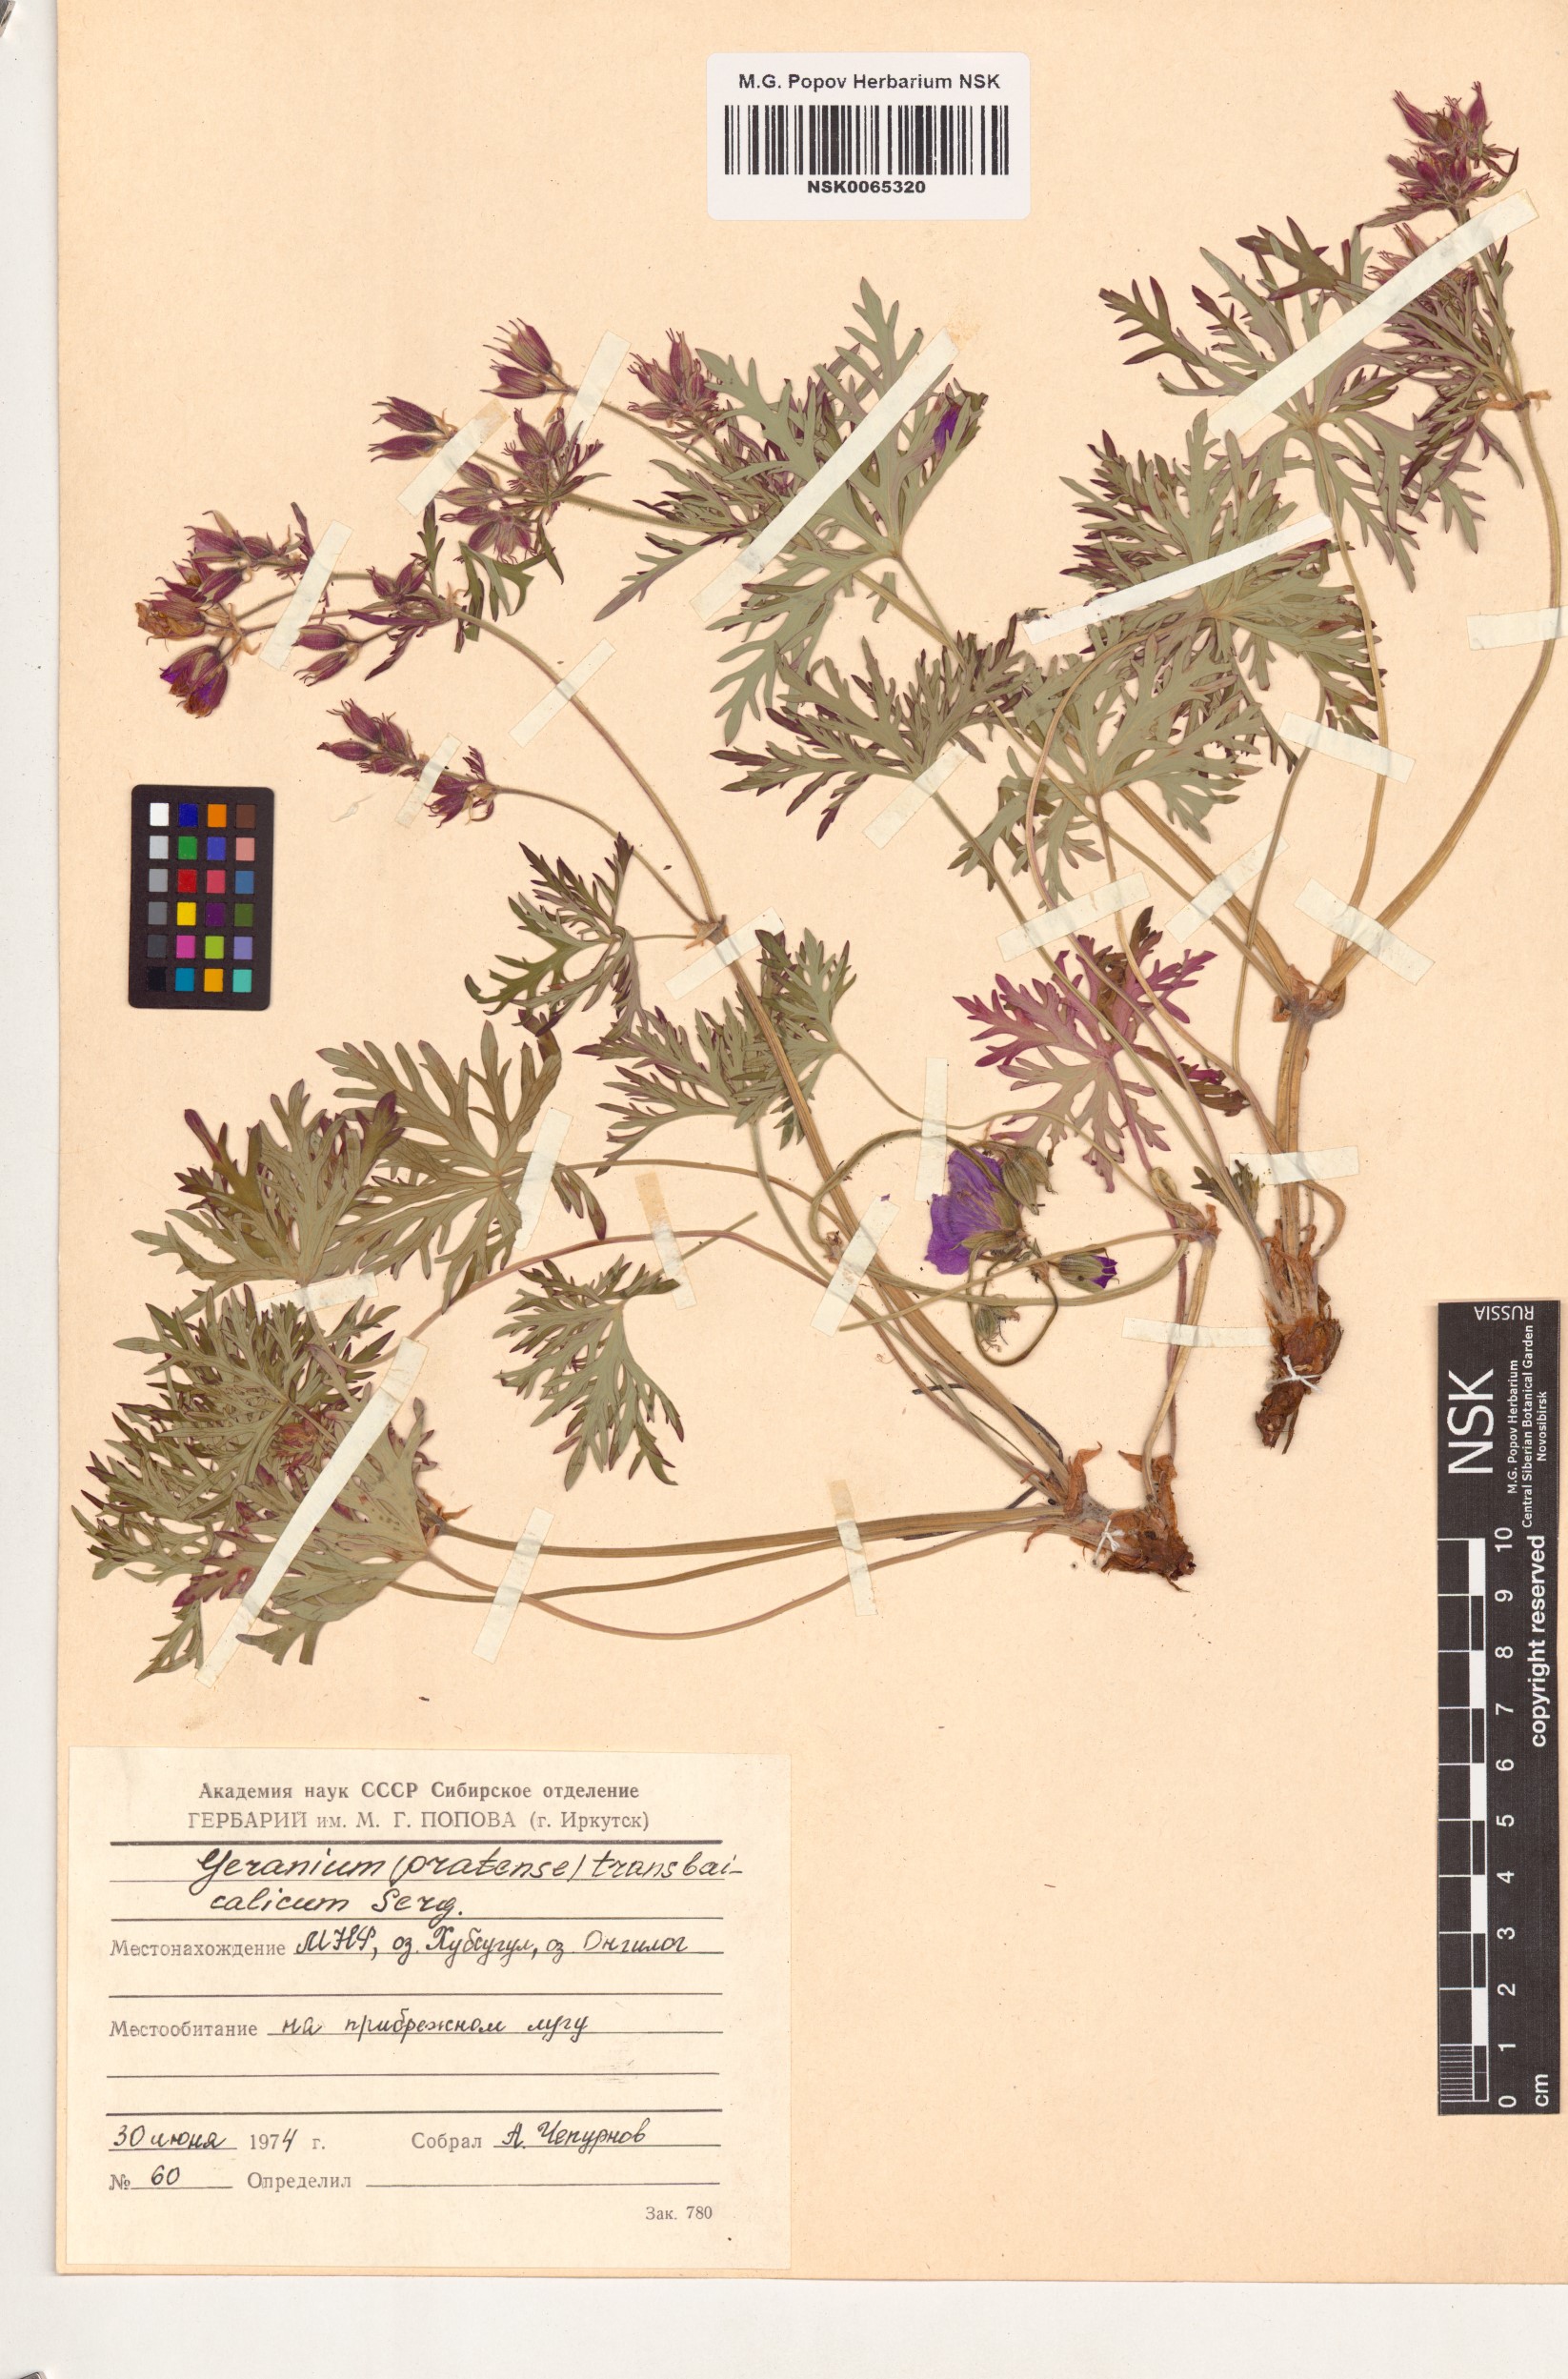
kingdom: Plantae
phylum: Tracheophyta
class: Magnoliopsida
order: Geraniales
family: Geraniaceae
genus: Geranium
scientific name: Geranium pratense
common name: Meadow crane's-bill
